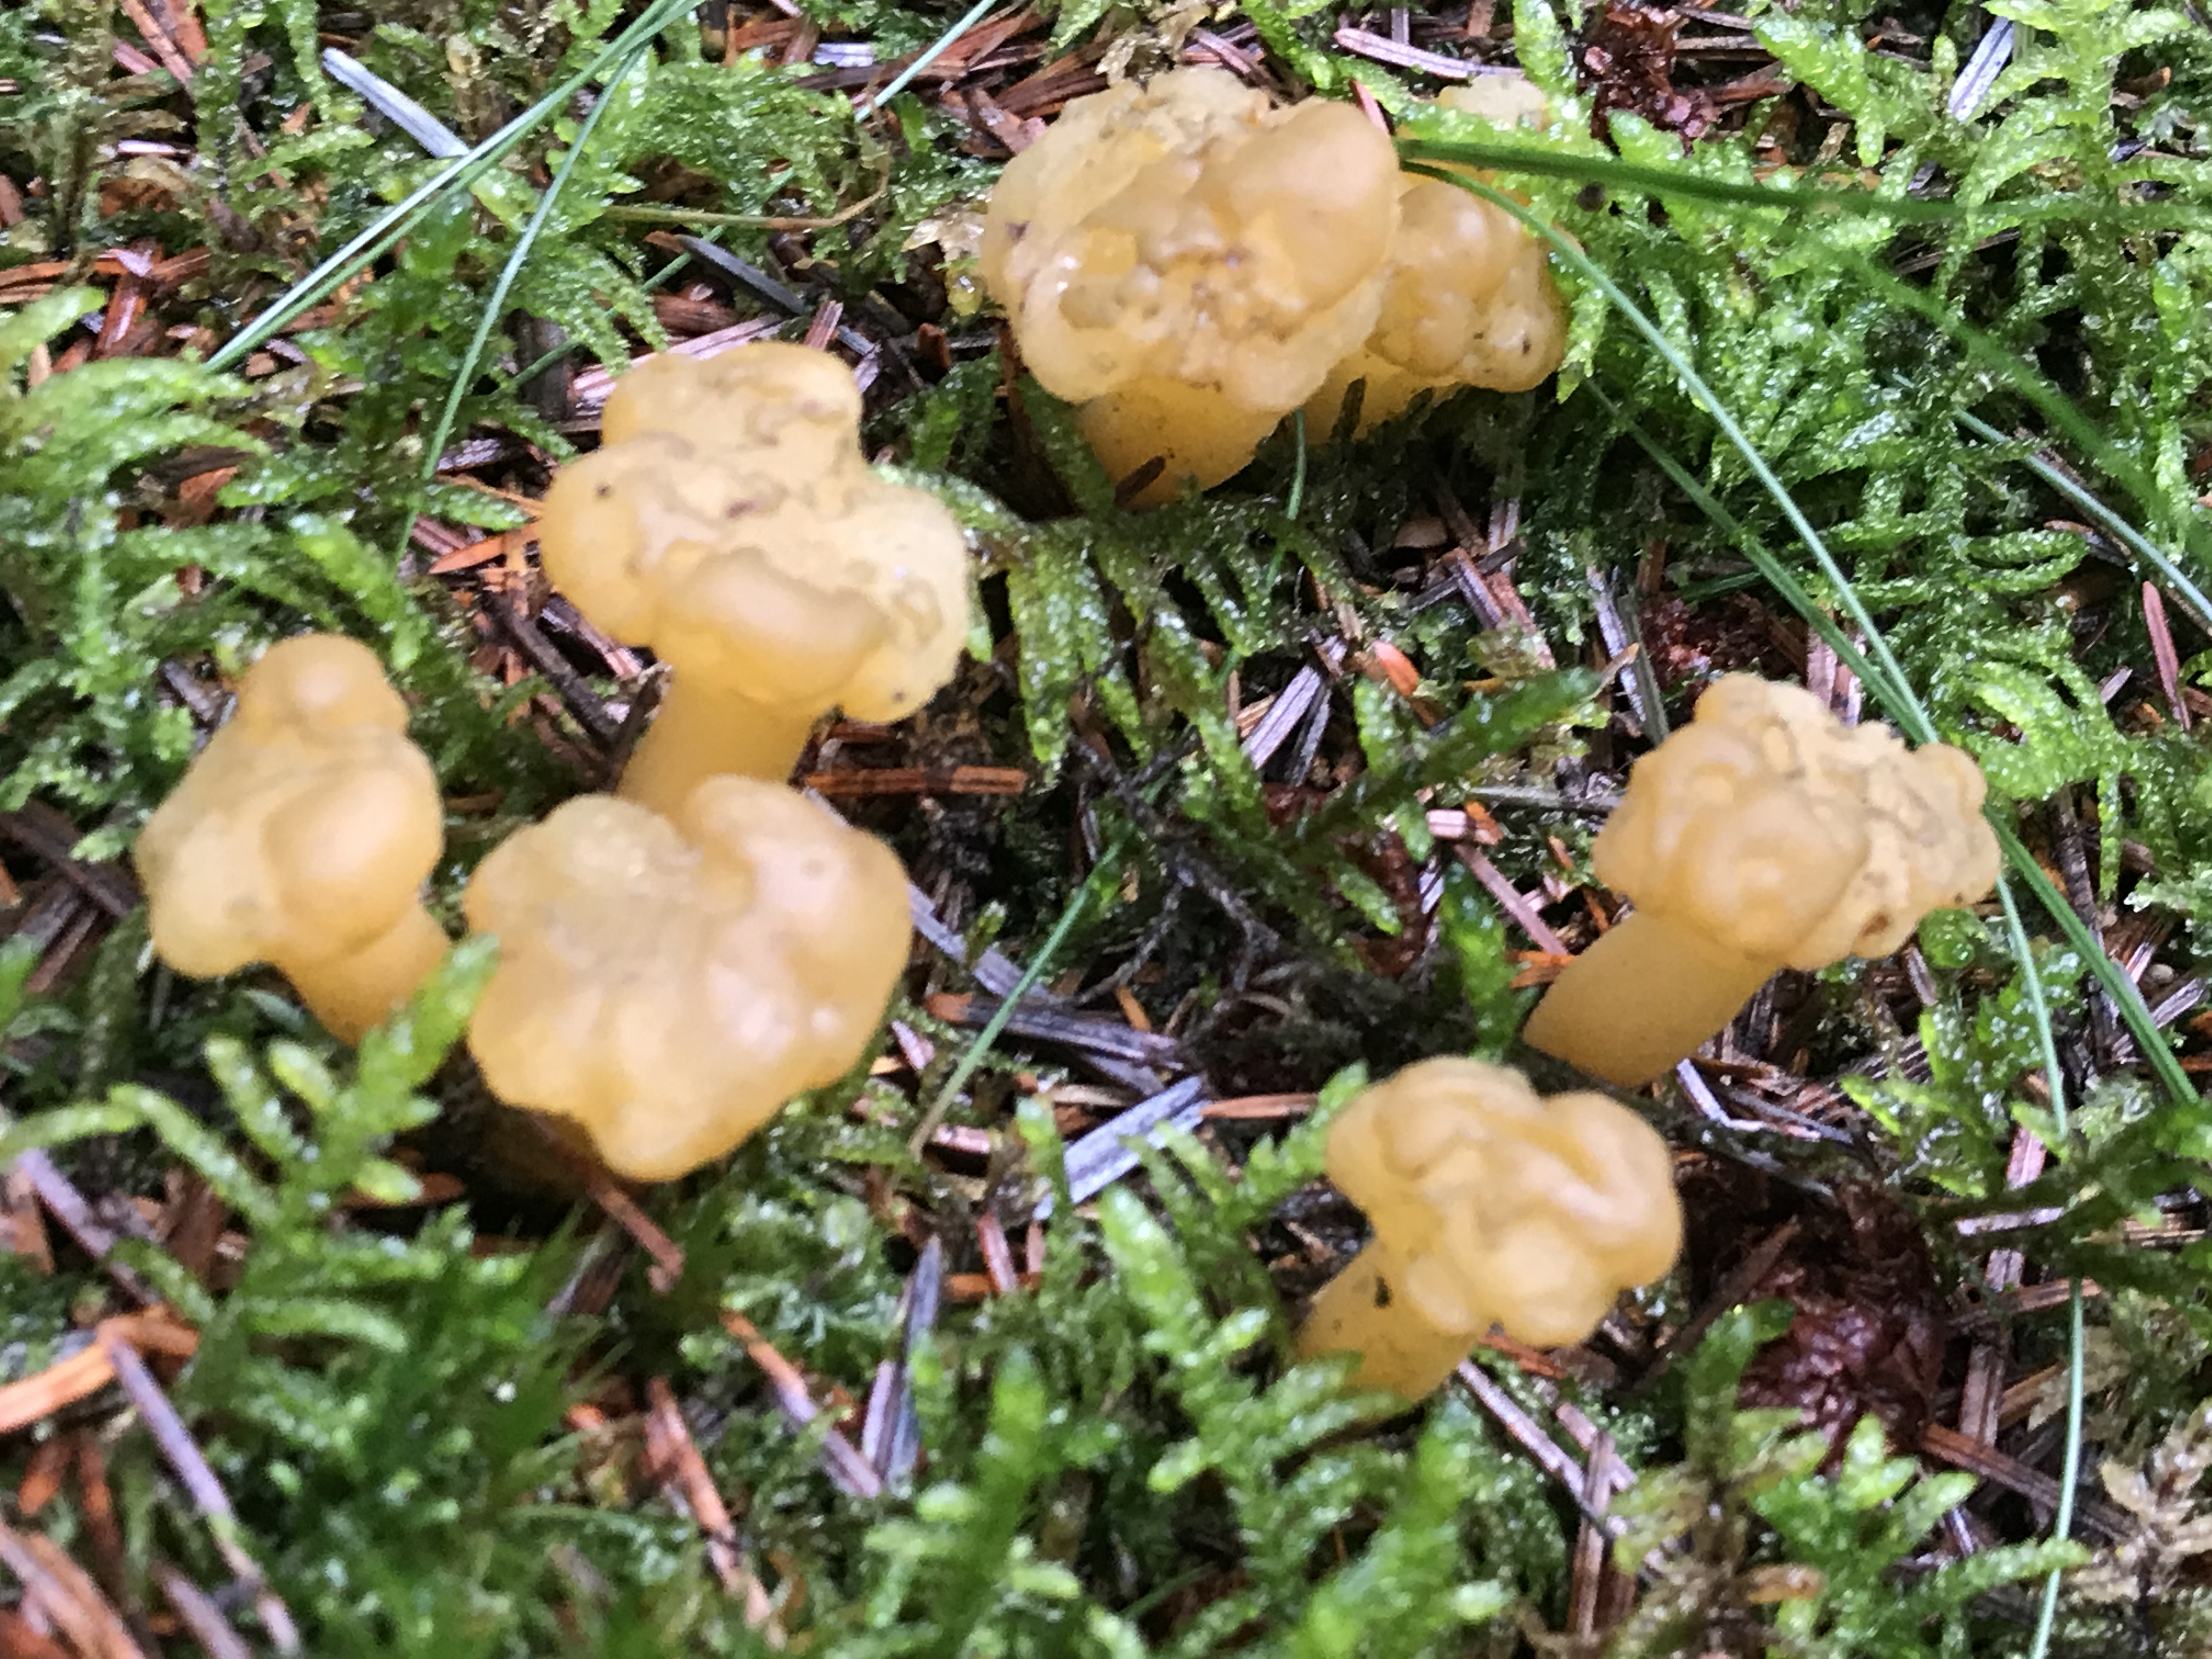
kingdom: Fungi
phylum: Ascomycota
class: Leotiomycetes
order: Leotiales
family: Leotiaceae
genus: Leotia
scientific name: Leotia lubrica
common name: ravsvamp
